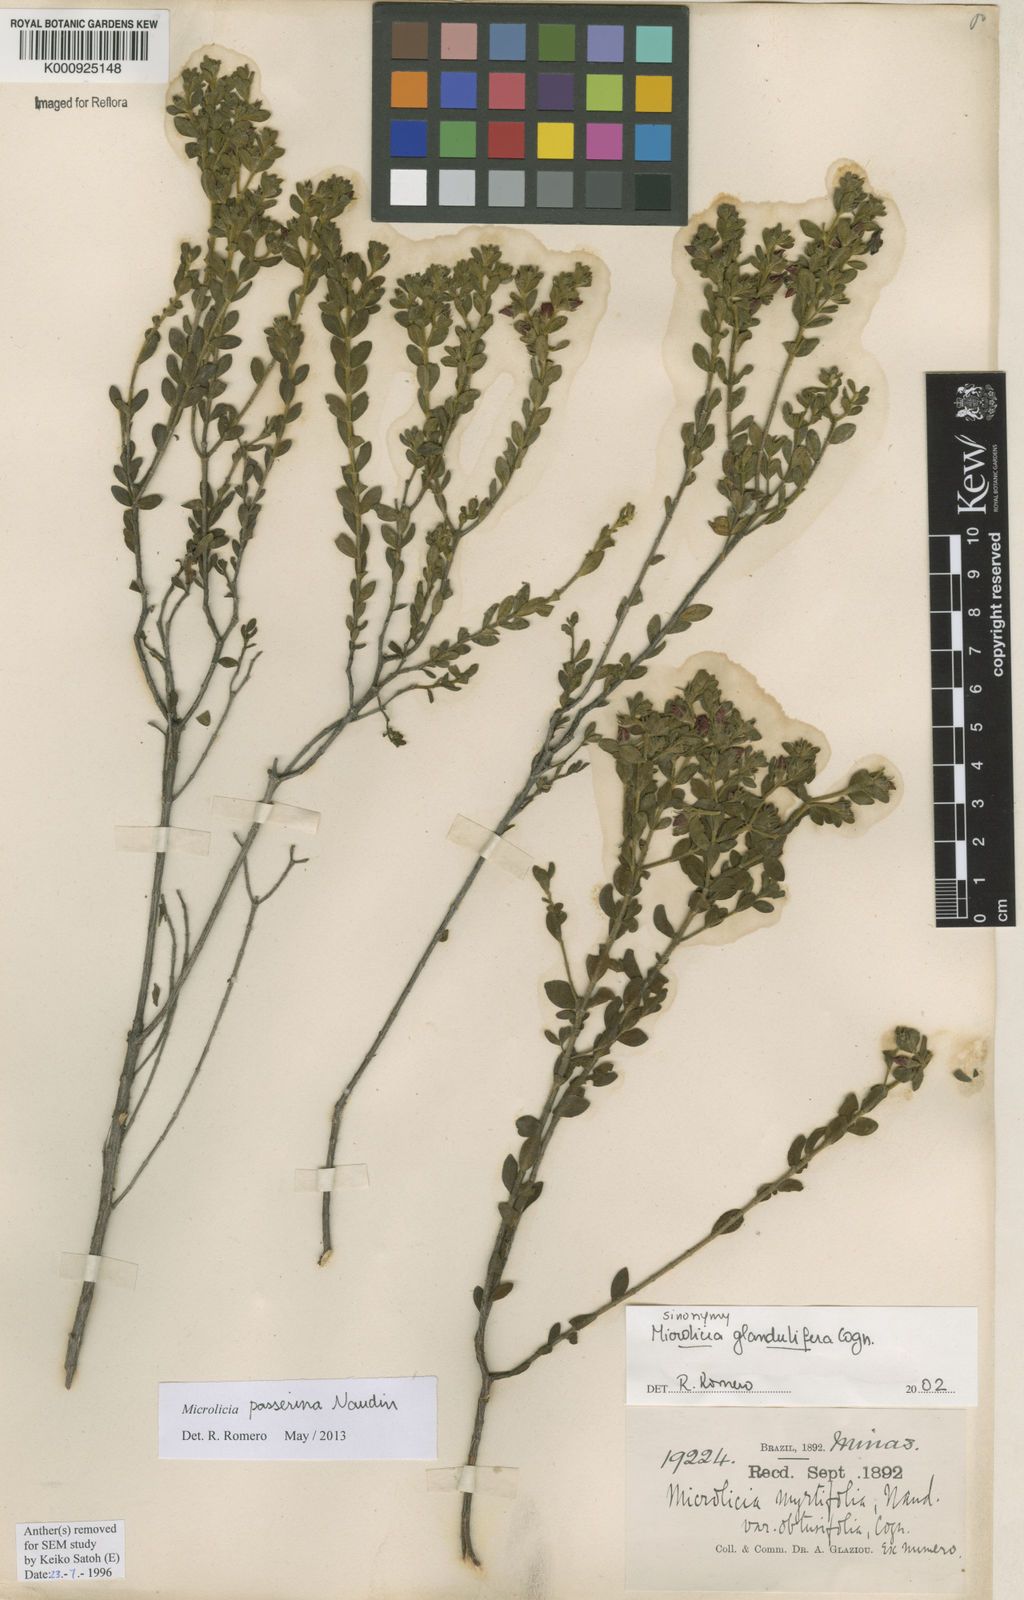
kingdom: Plantae
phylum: Tracheophyta
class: Magnoliopsida
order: Myrtales
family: Melastomataceae
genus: Microlicia
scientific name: Microlicia passerina
